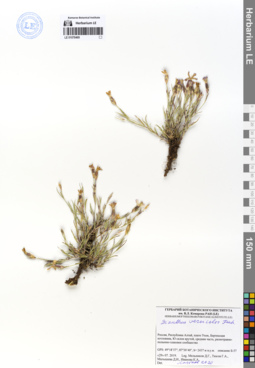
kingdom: Plantae
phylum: Tracheophyta
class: Magnoliopsida
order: Caryophyllales
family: Caryophyllaceae
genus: Dianthus
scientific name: Dianthus chinensis
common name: Rainbow pink
